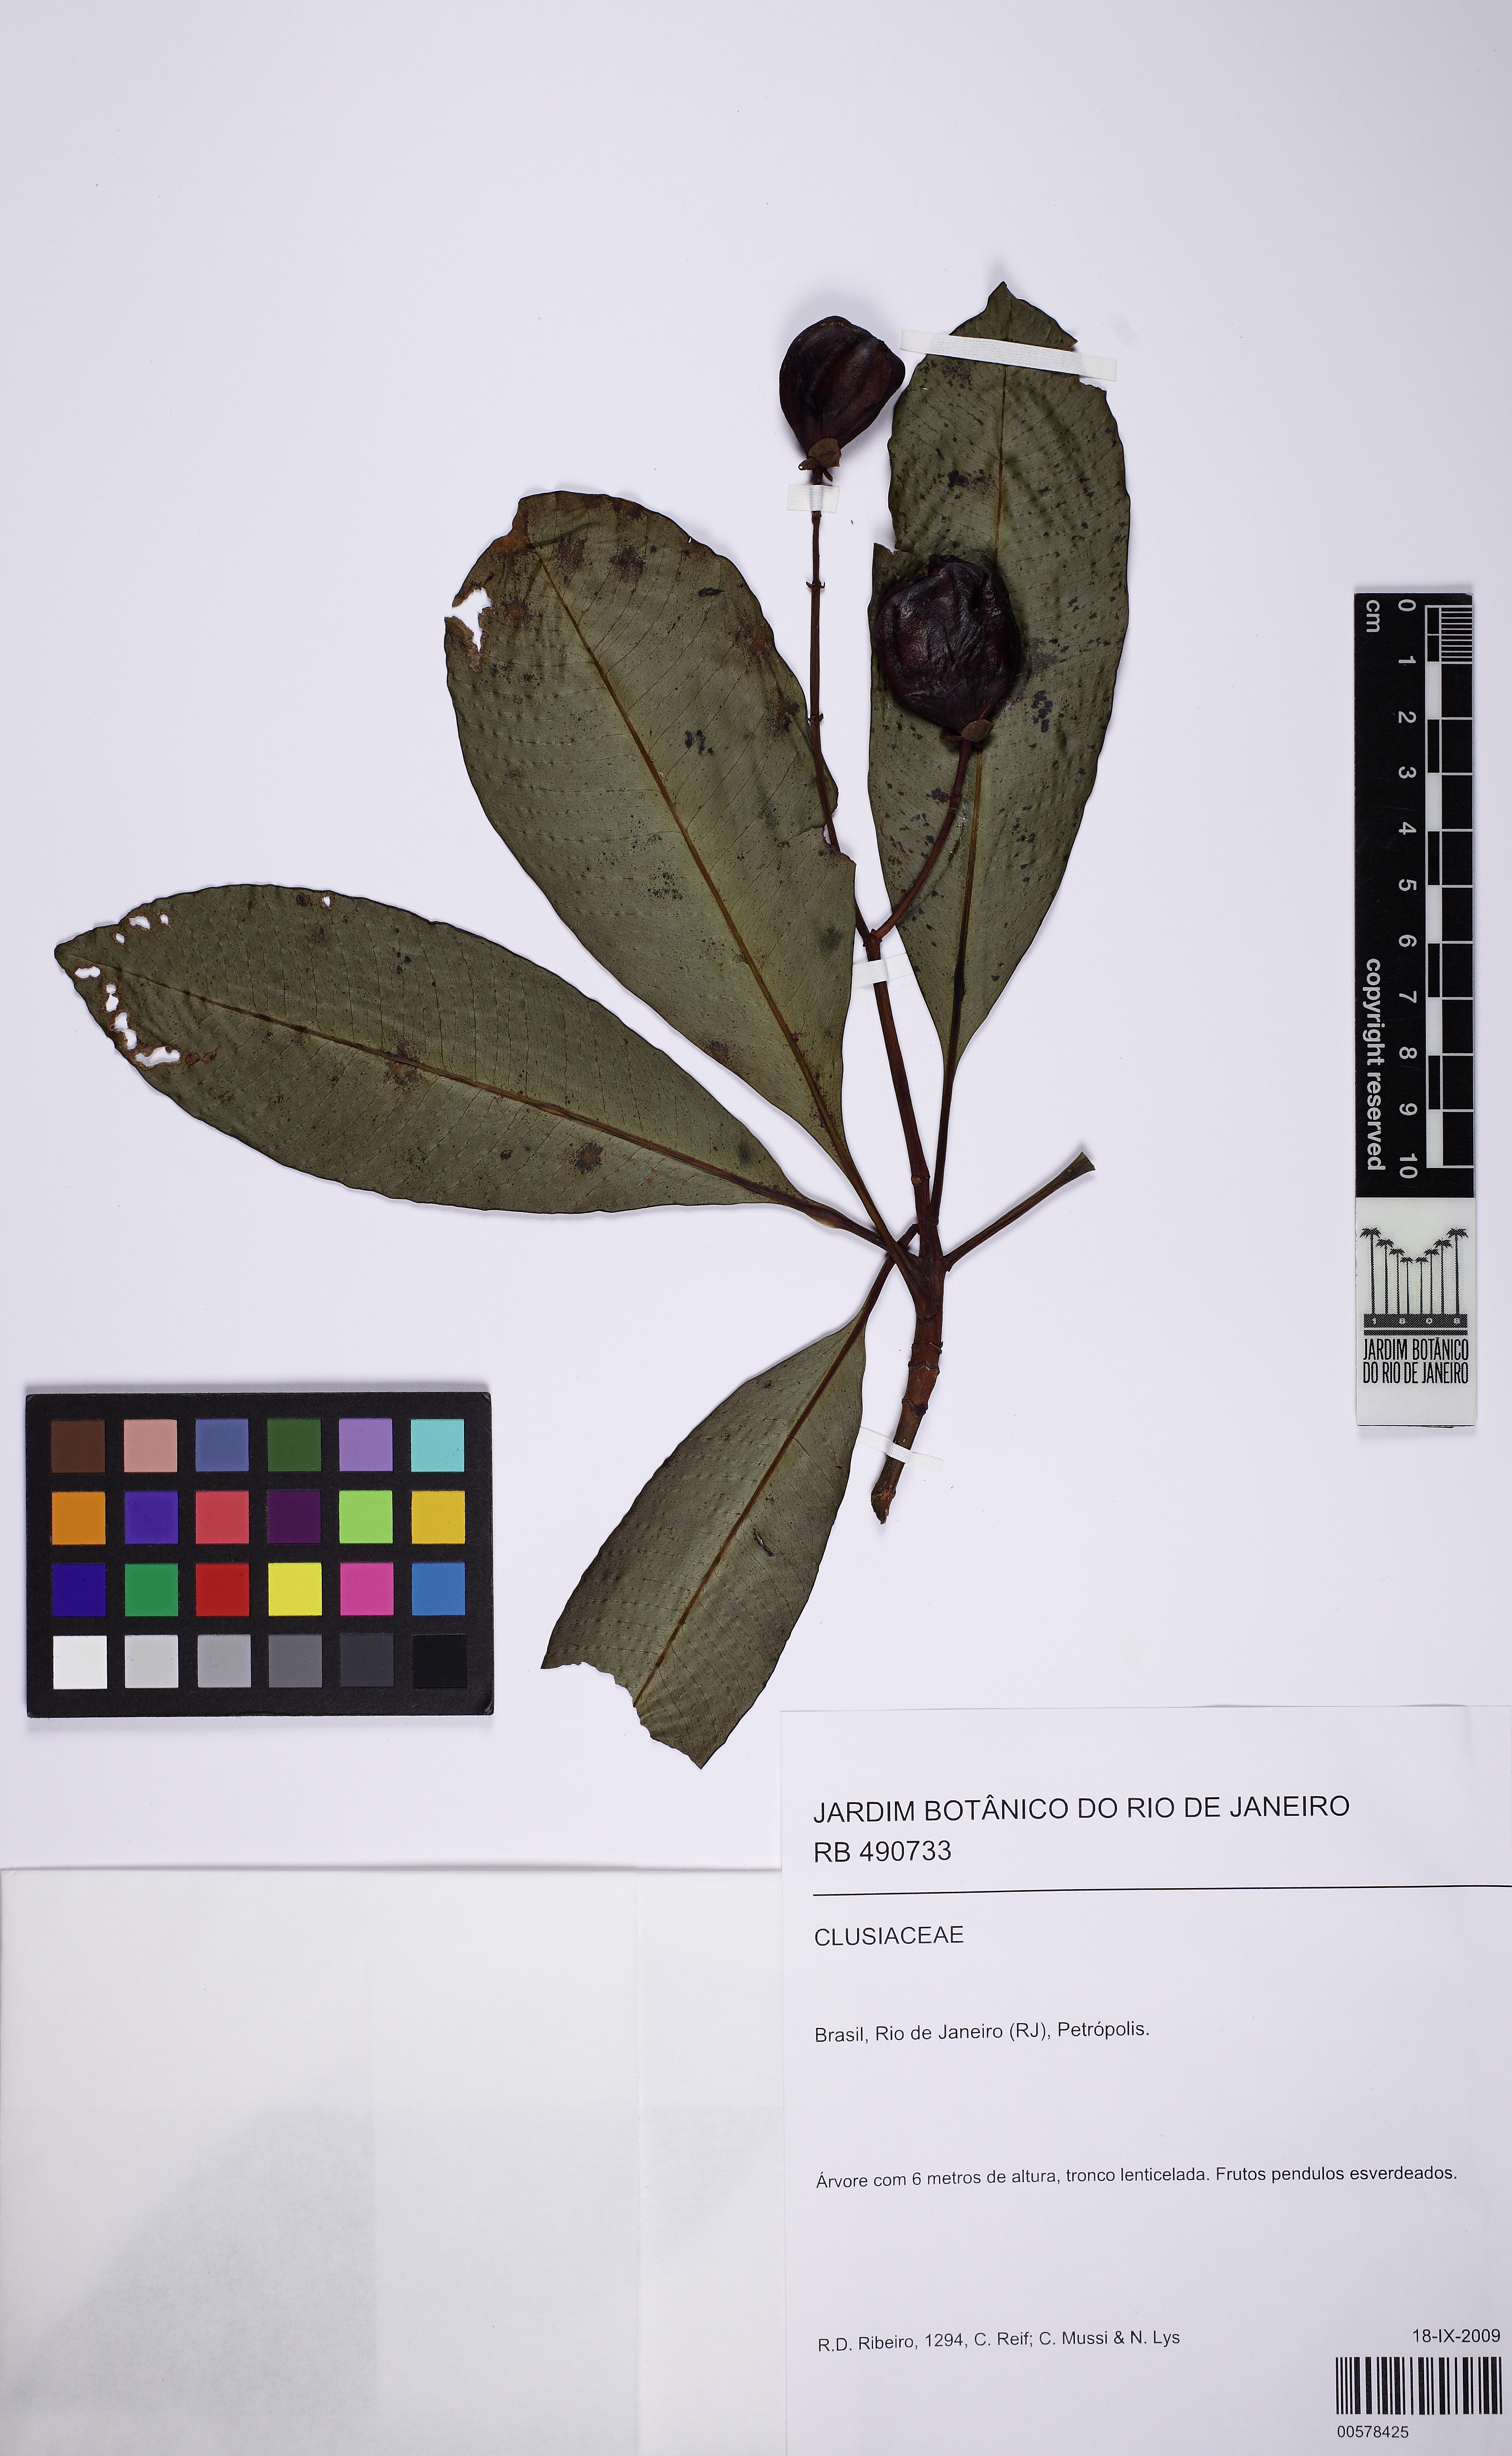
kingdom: Plantae
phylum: Tracheophyta
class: Magnoliopsida
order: Malpighiales
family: Clusiaceae
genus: Chrysochlamys
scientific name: Chrysochlamys paniculata
